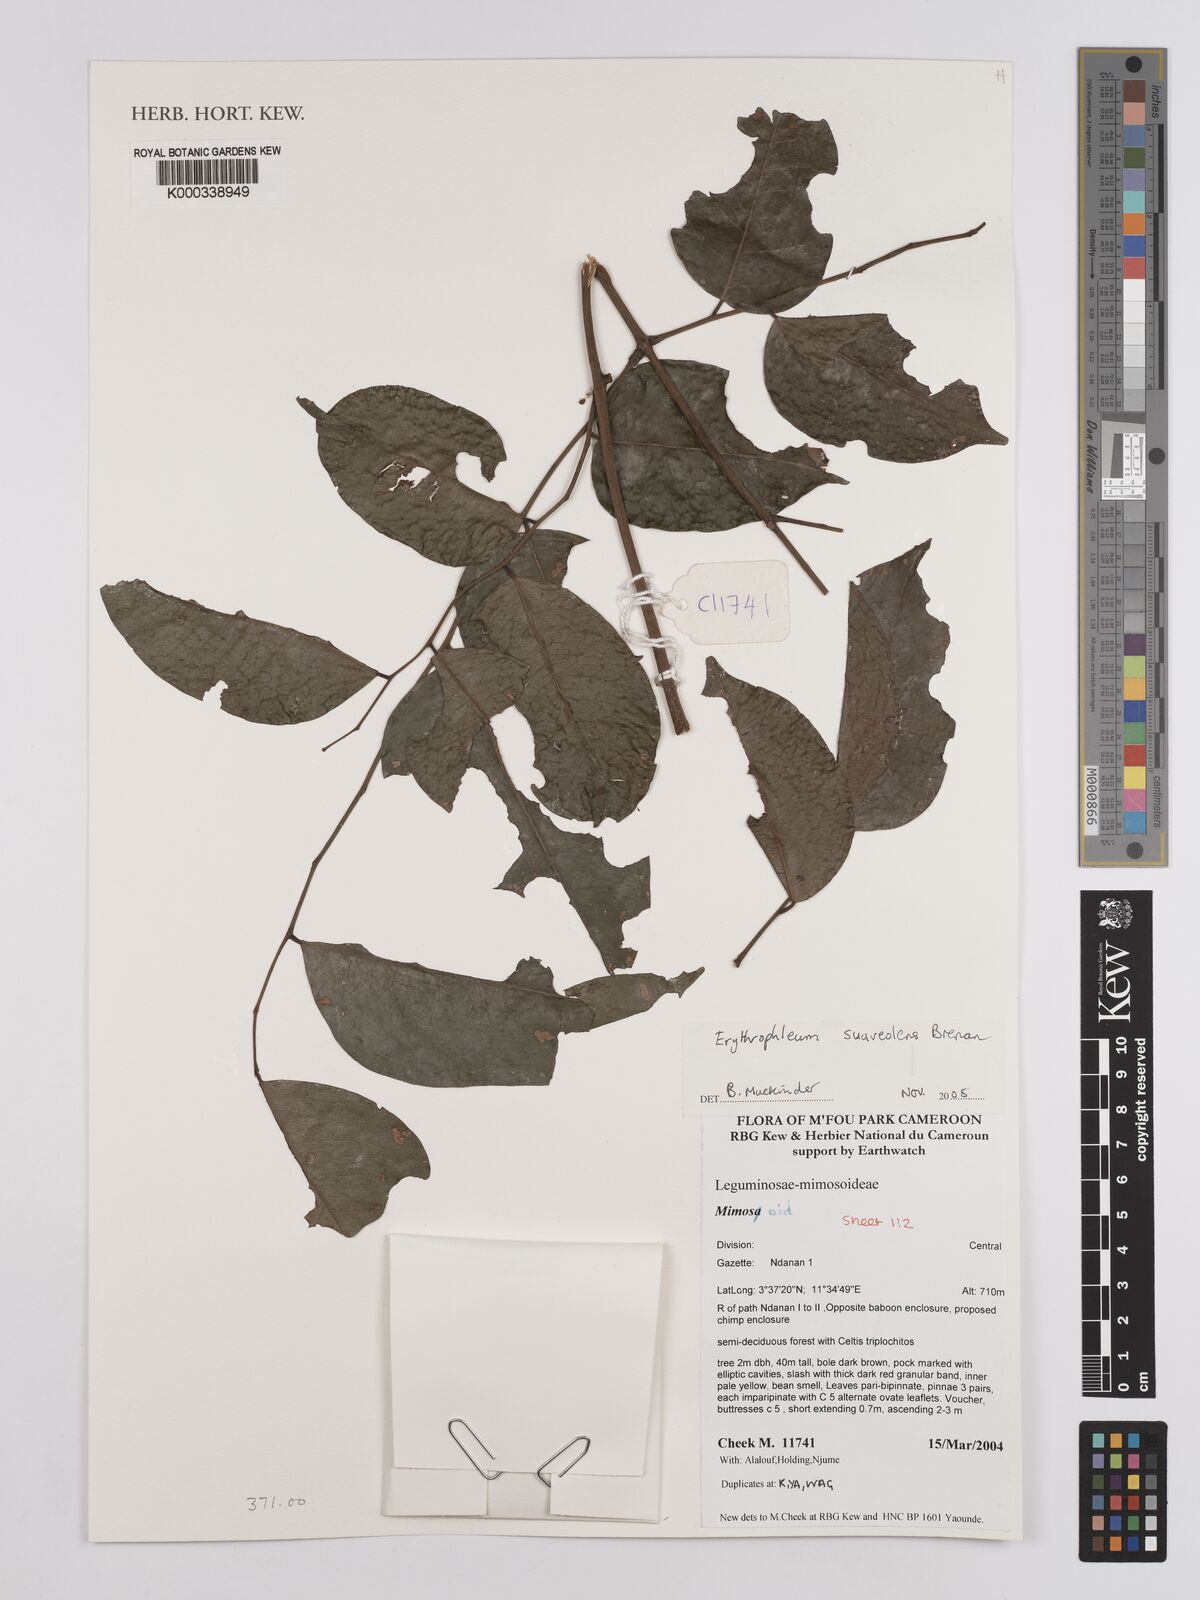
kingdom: Plantae
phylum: Tracheophyta
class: Magnoliopsida
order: Fabales
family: Fabaceae
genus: Erythrophleum
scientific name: Erythrophleum suaveolens
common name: Ordeal tree
